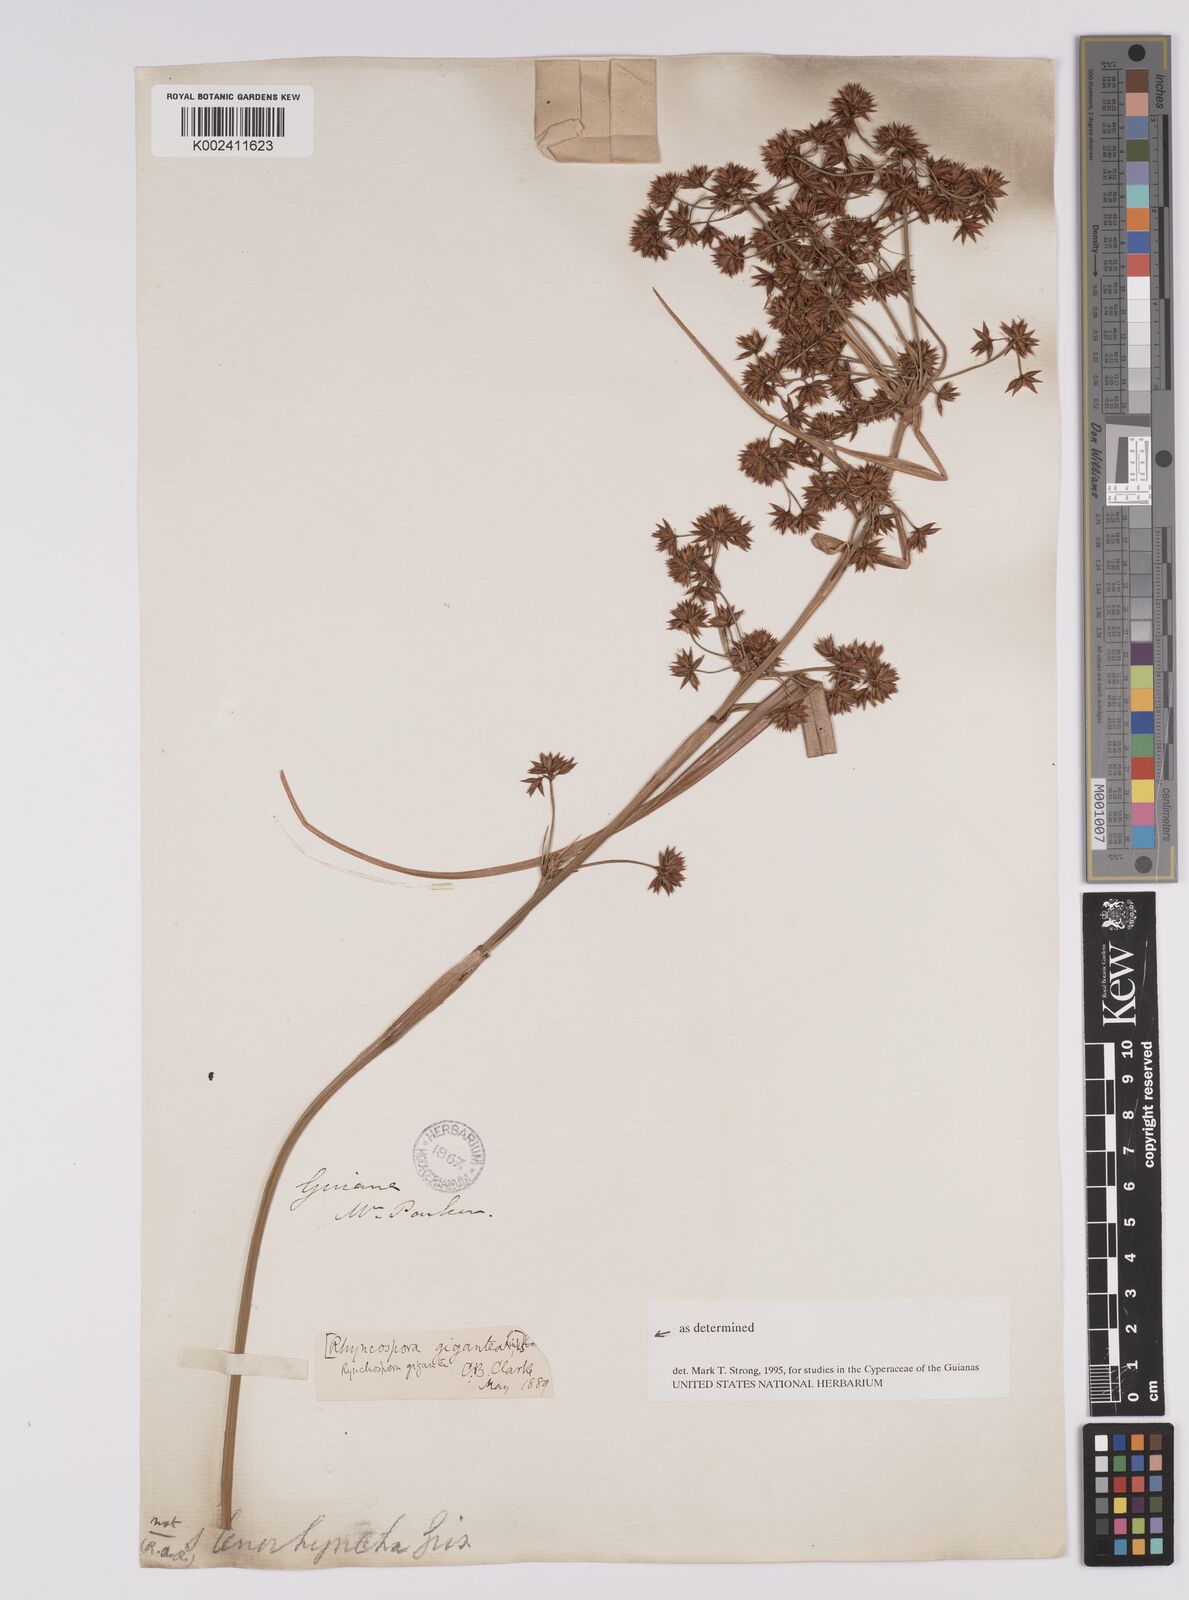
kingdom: Plantae
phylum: Tracheophyta
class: Liliopsida
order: Poales
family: Cyperaceae
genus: Rhynchospora
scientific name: Rhynchospora gigantea
